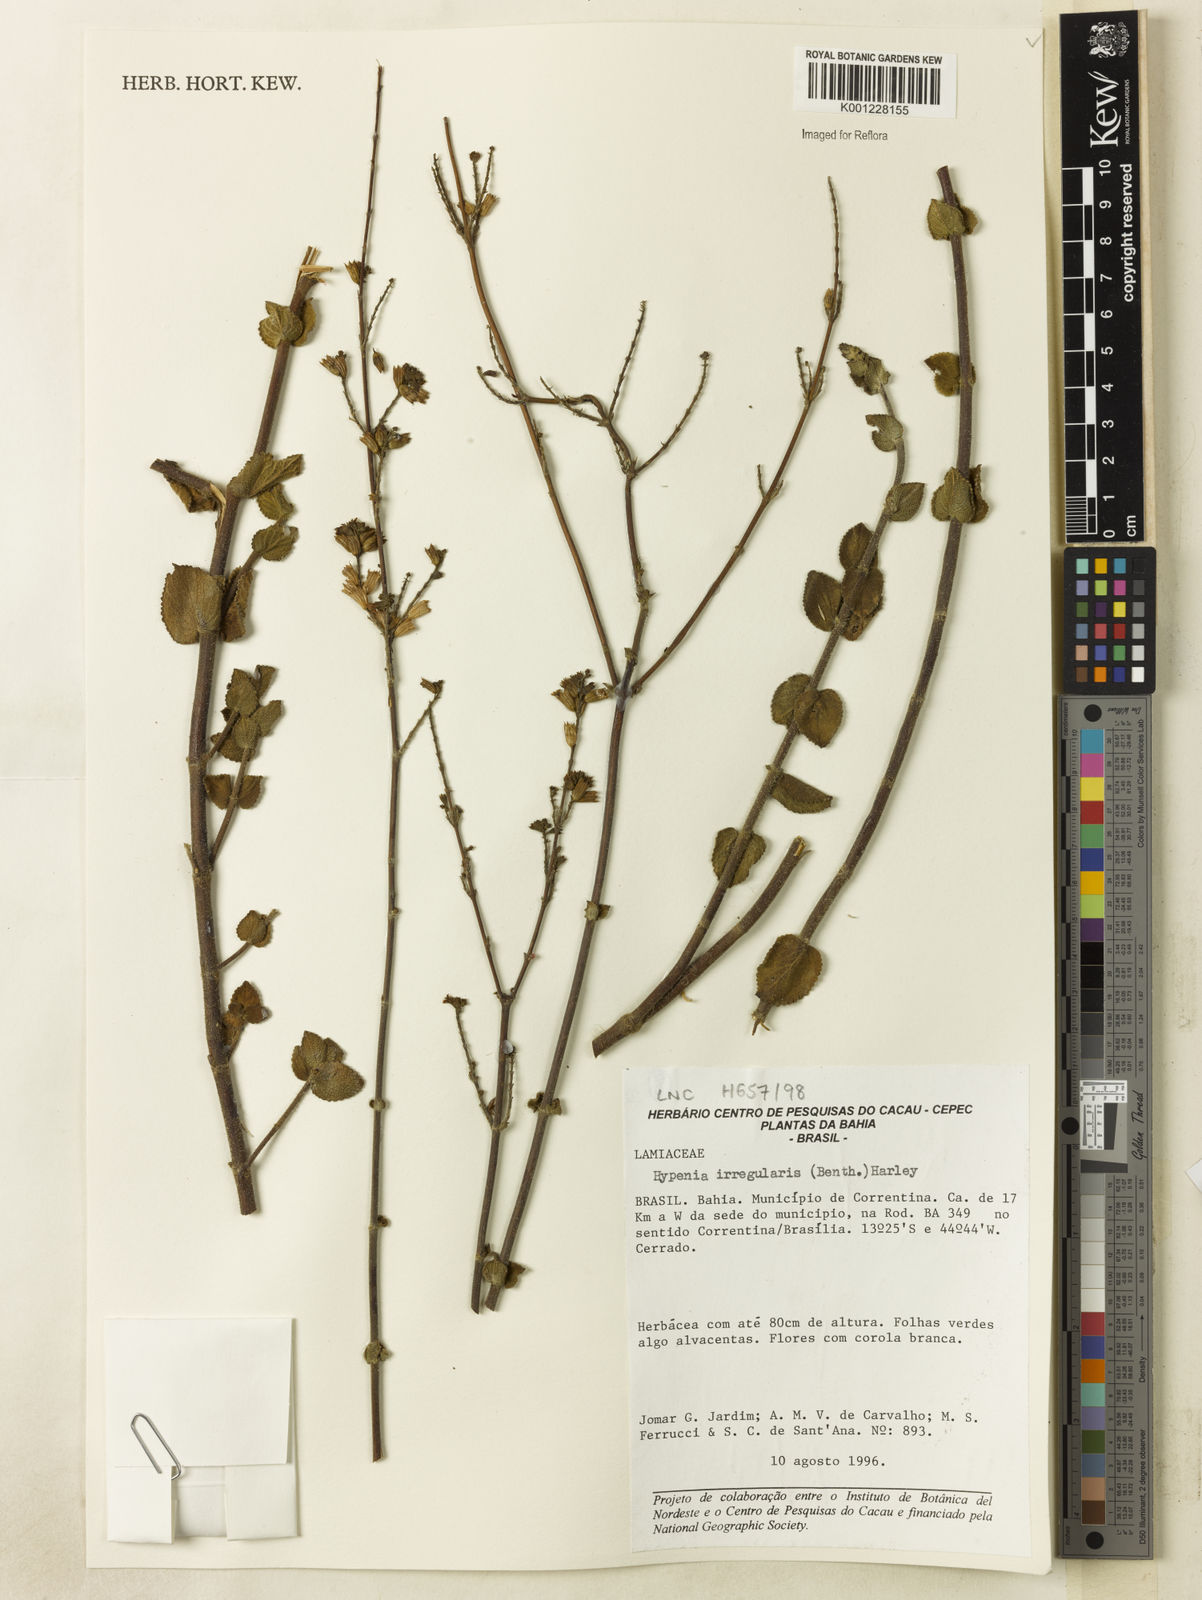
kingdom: Plantae
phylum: Tracheophyta
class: Magnoliopsida
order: Lamiales
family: Lamiaceae
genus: Hypenia
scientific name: Hypenia irregularis
